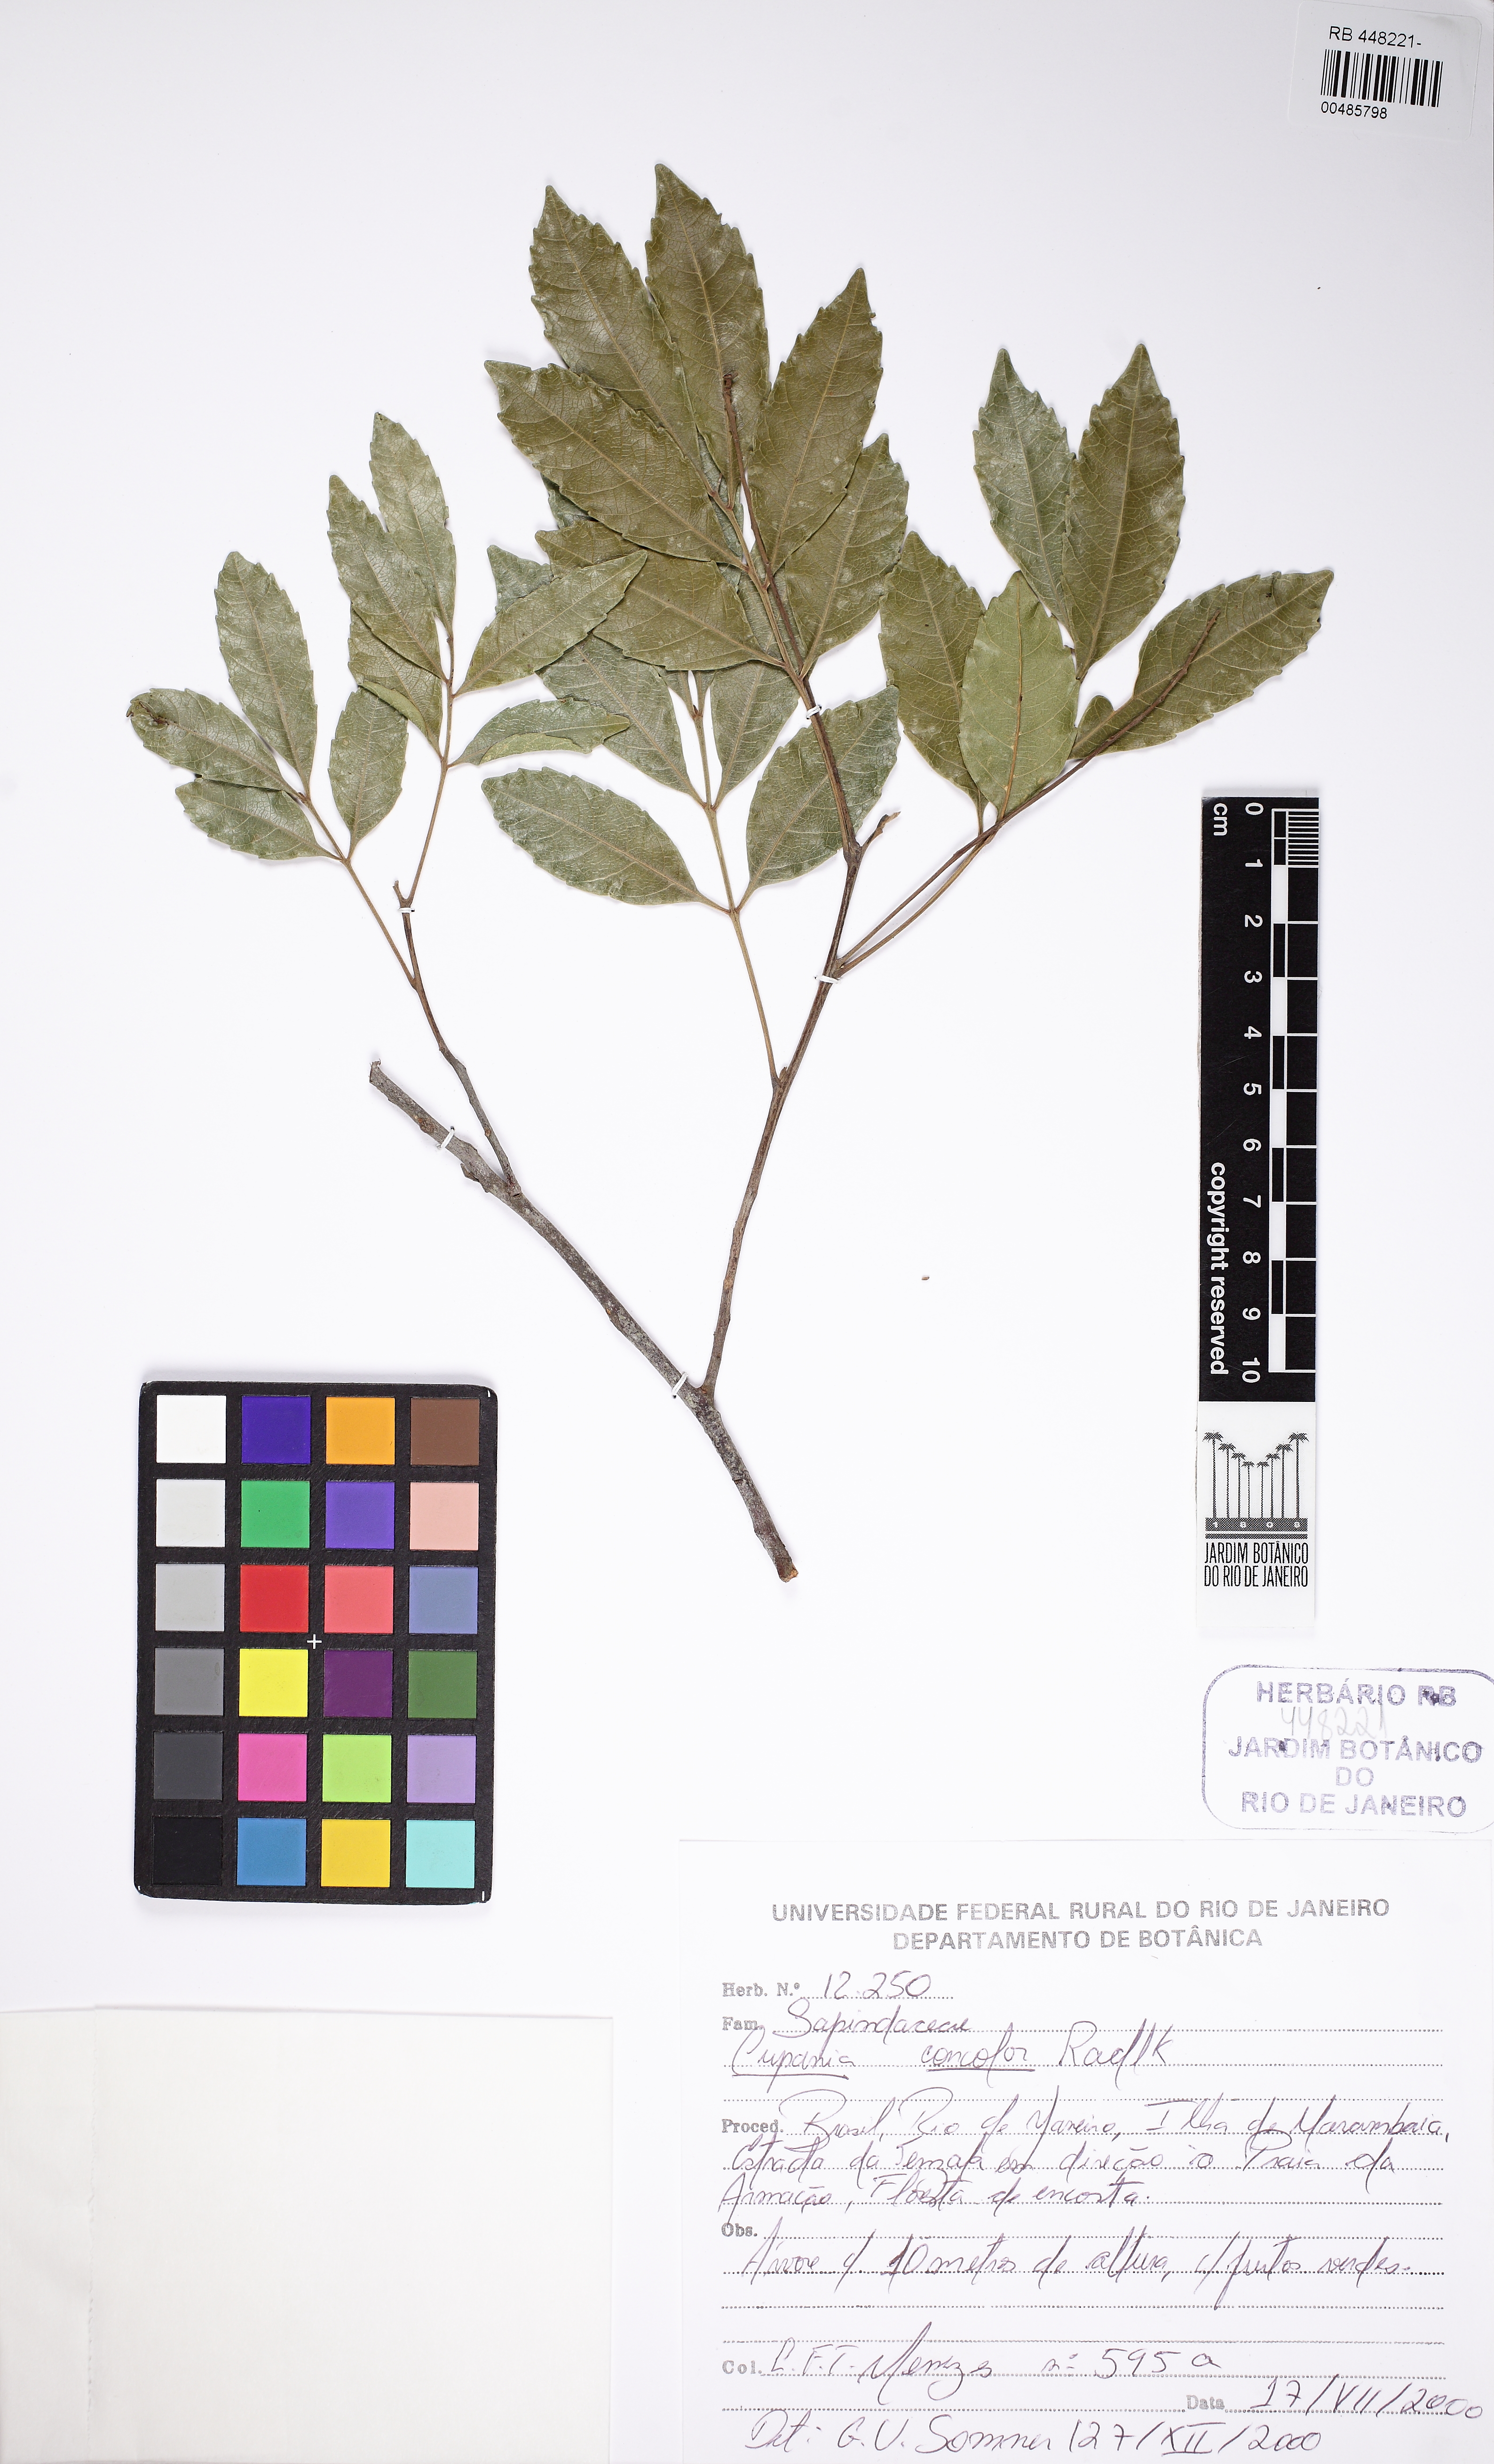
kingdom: Plantae
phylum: Tracheophyta
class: Magnoliopsida
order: Sapindales
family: Sapindaceae
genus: Cupania
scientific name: Cupania concolor
